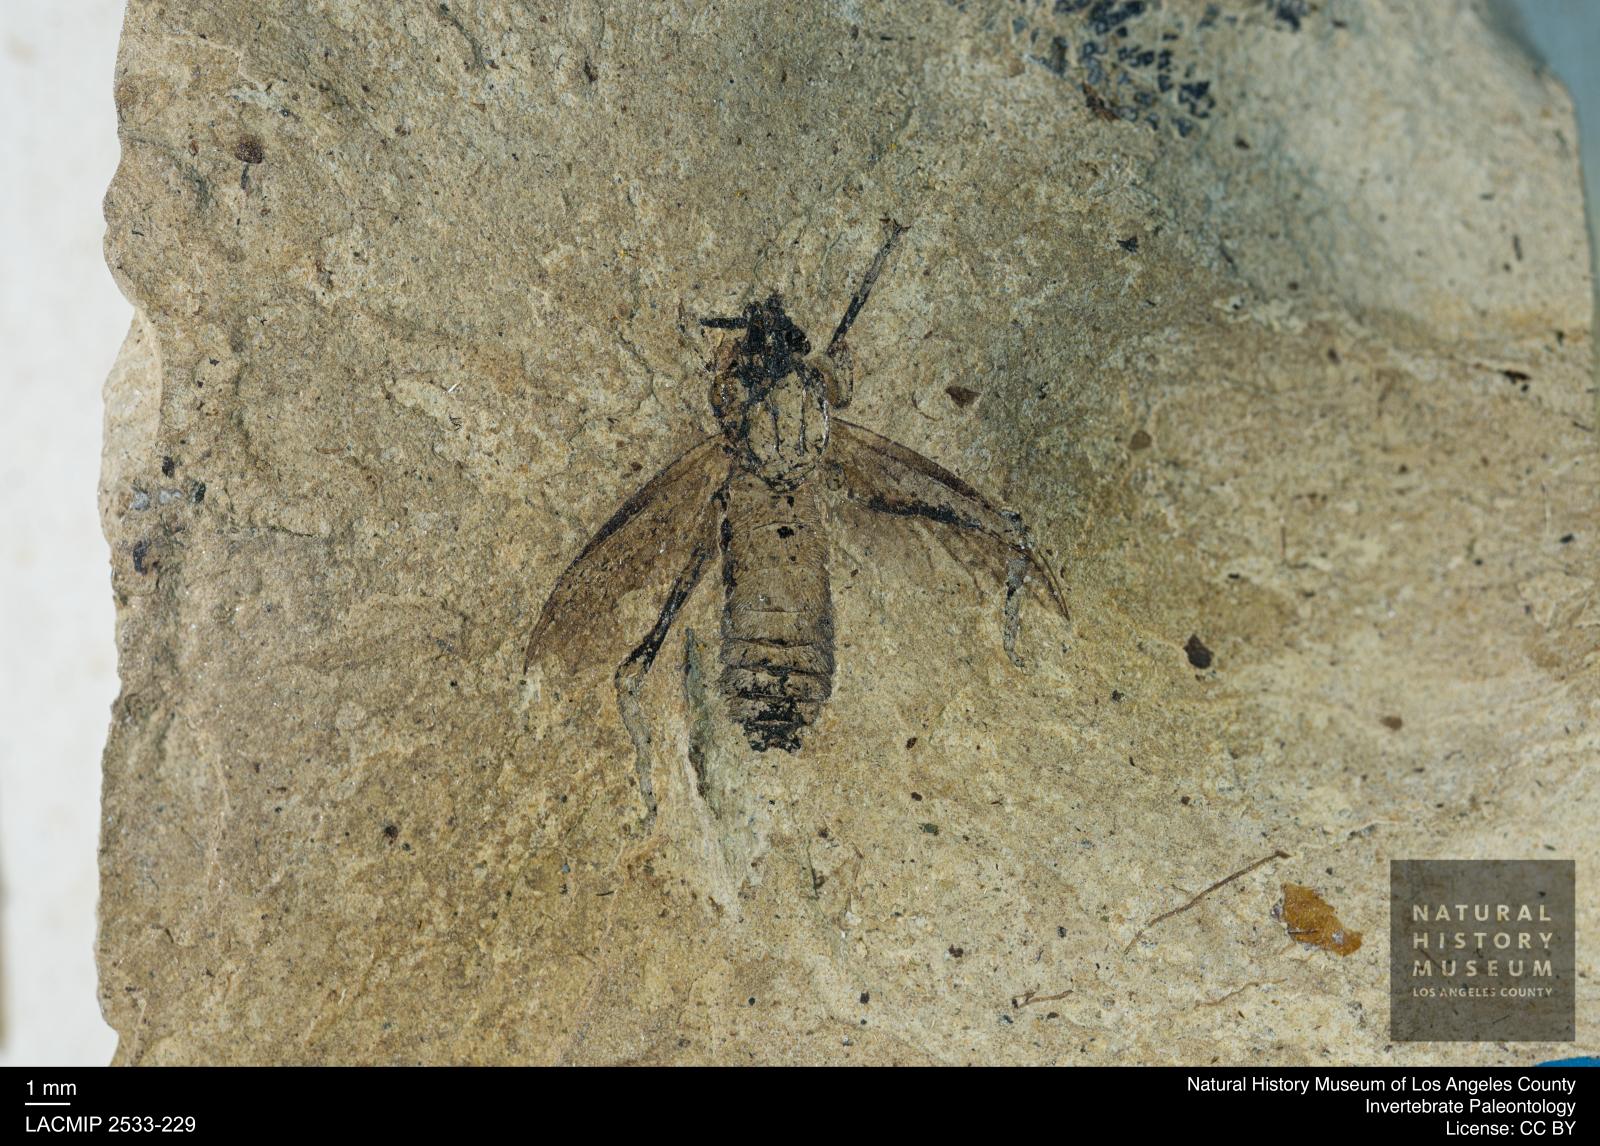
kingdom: Animalia
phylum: Arthropoda
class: Insecta
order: Diptera
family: Bibionidae
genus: Bibio
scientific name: Bibio
